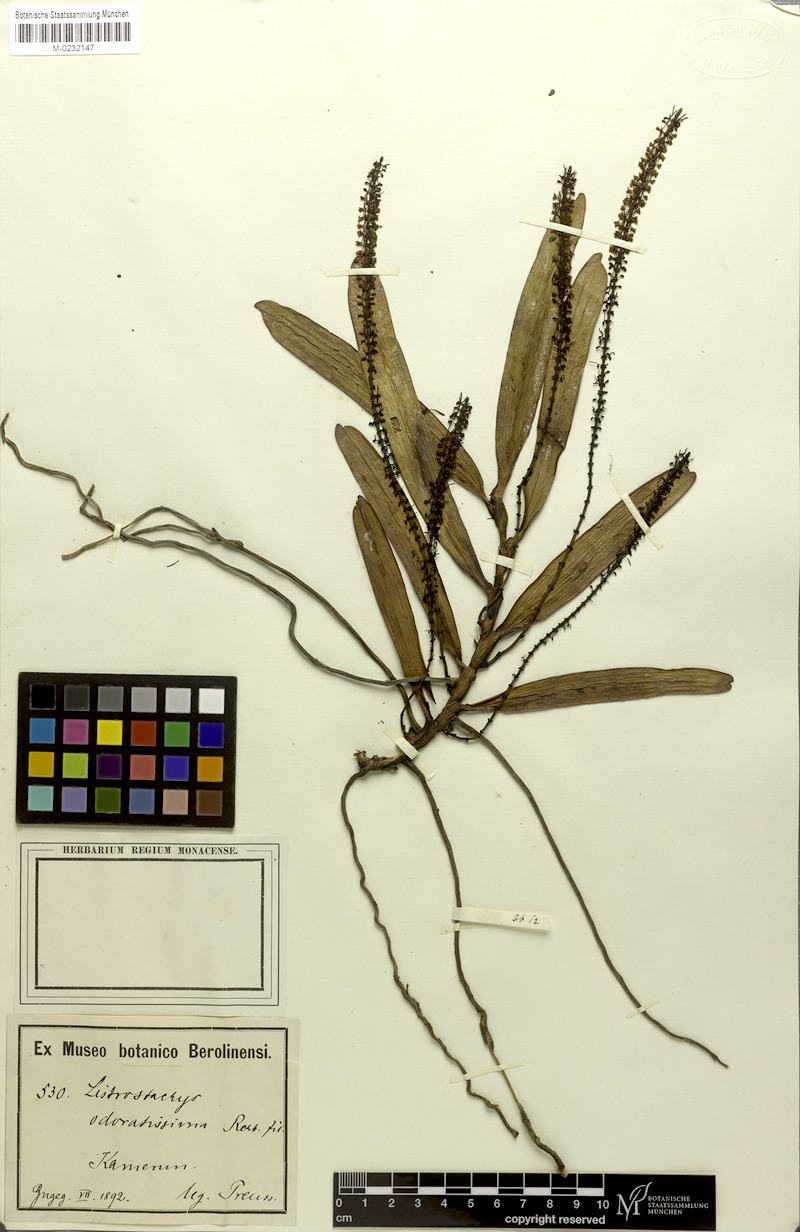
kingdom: Plantae
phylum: Tracheophyta
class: Liliopsida
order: Asparagales
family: Orchidaceae
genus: Diaphananthe
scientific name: Diaphananthe odoratissima
